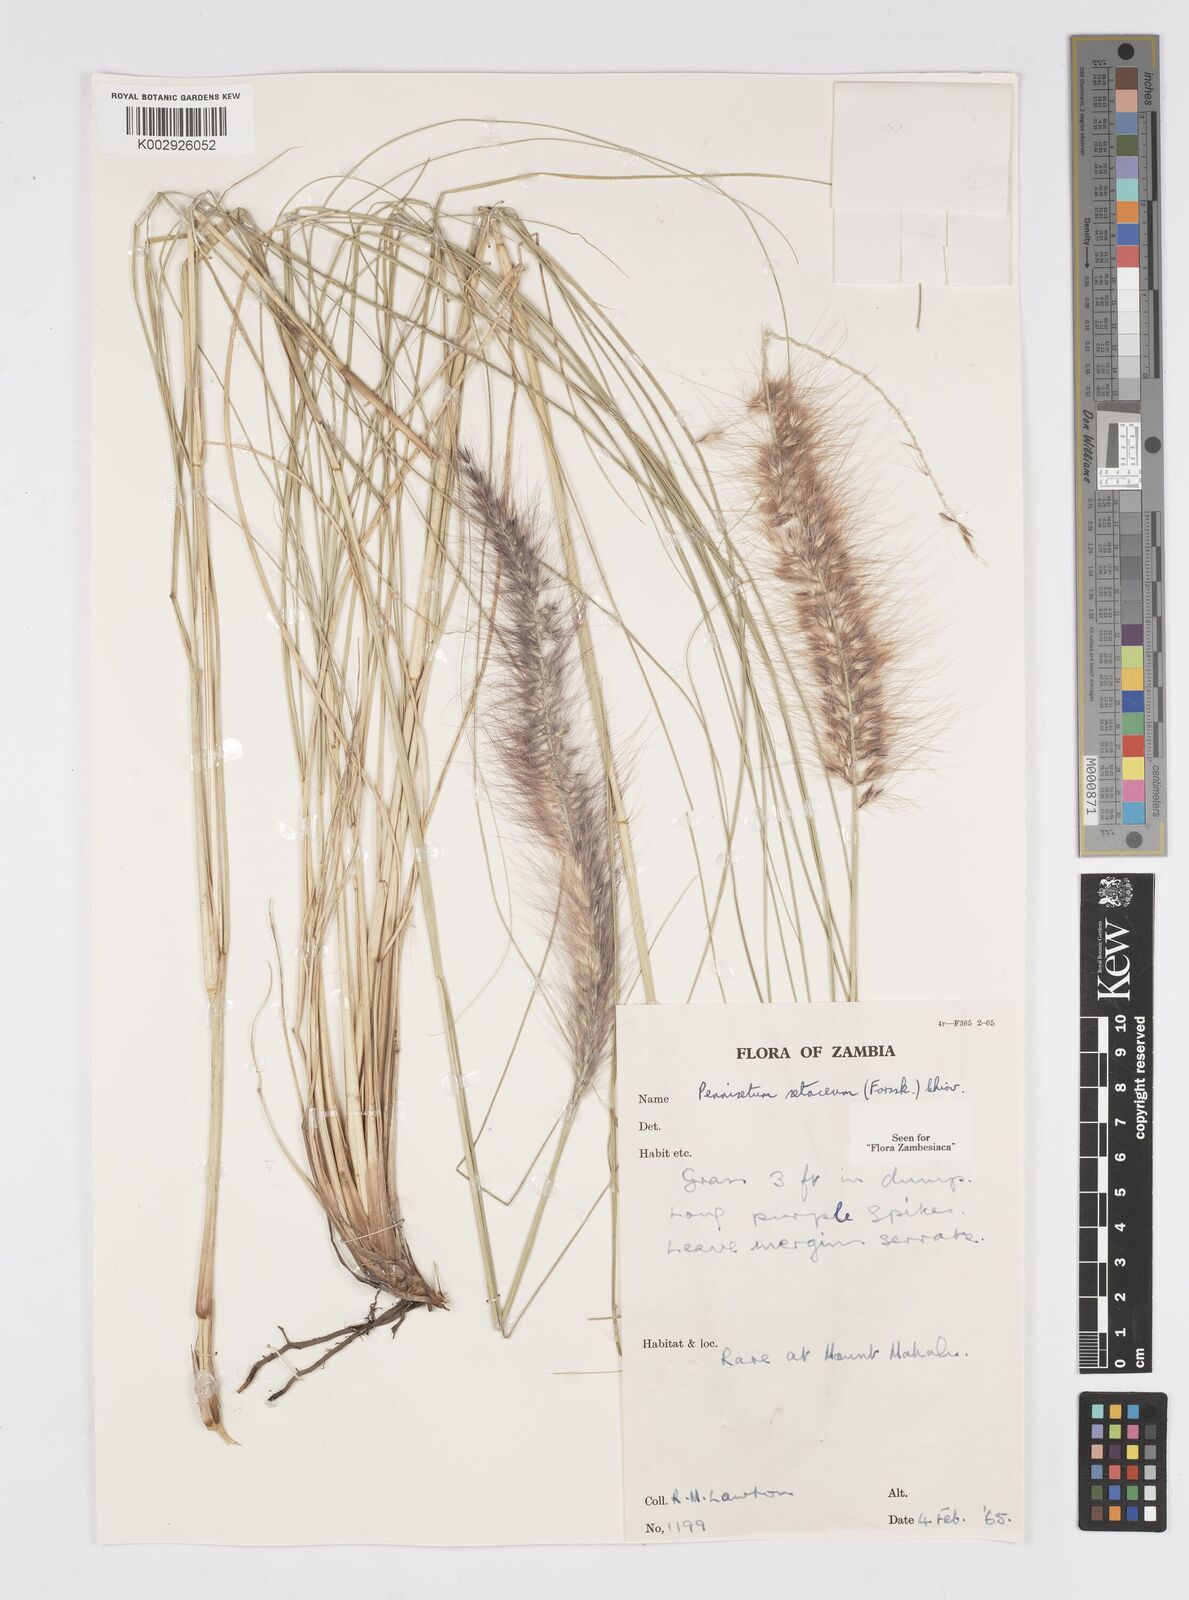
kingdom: Plantae
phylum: Tracheophyta
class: Liliopsida
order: Poales
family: Poaceae
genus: Cenchrus
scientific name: Cenchrus setaceus
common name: Crimson fountaingrass
